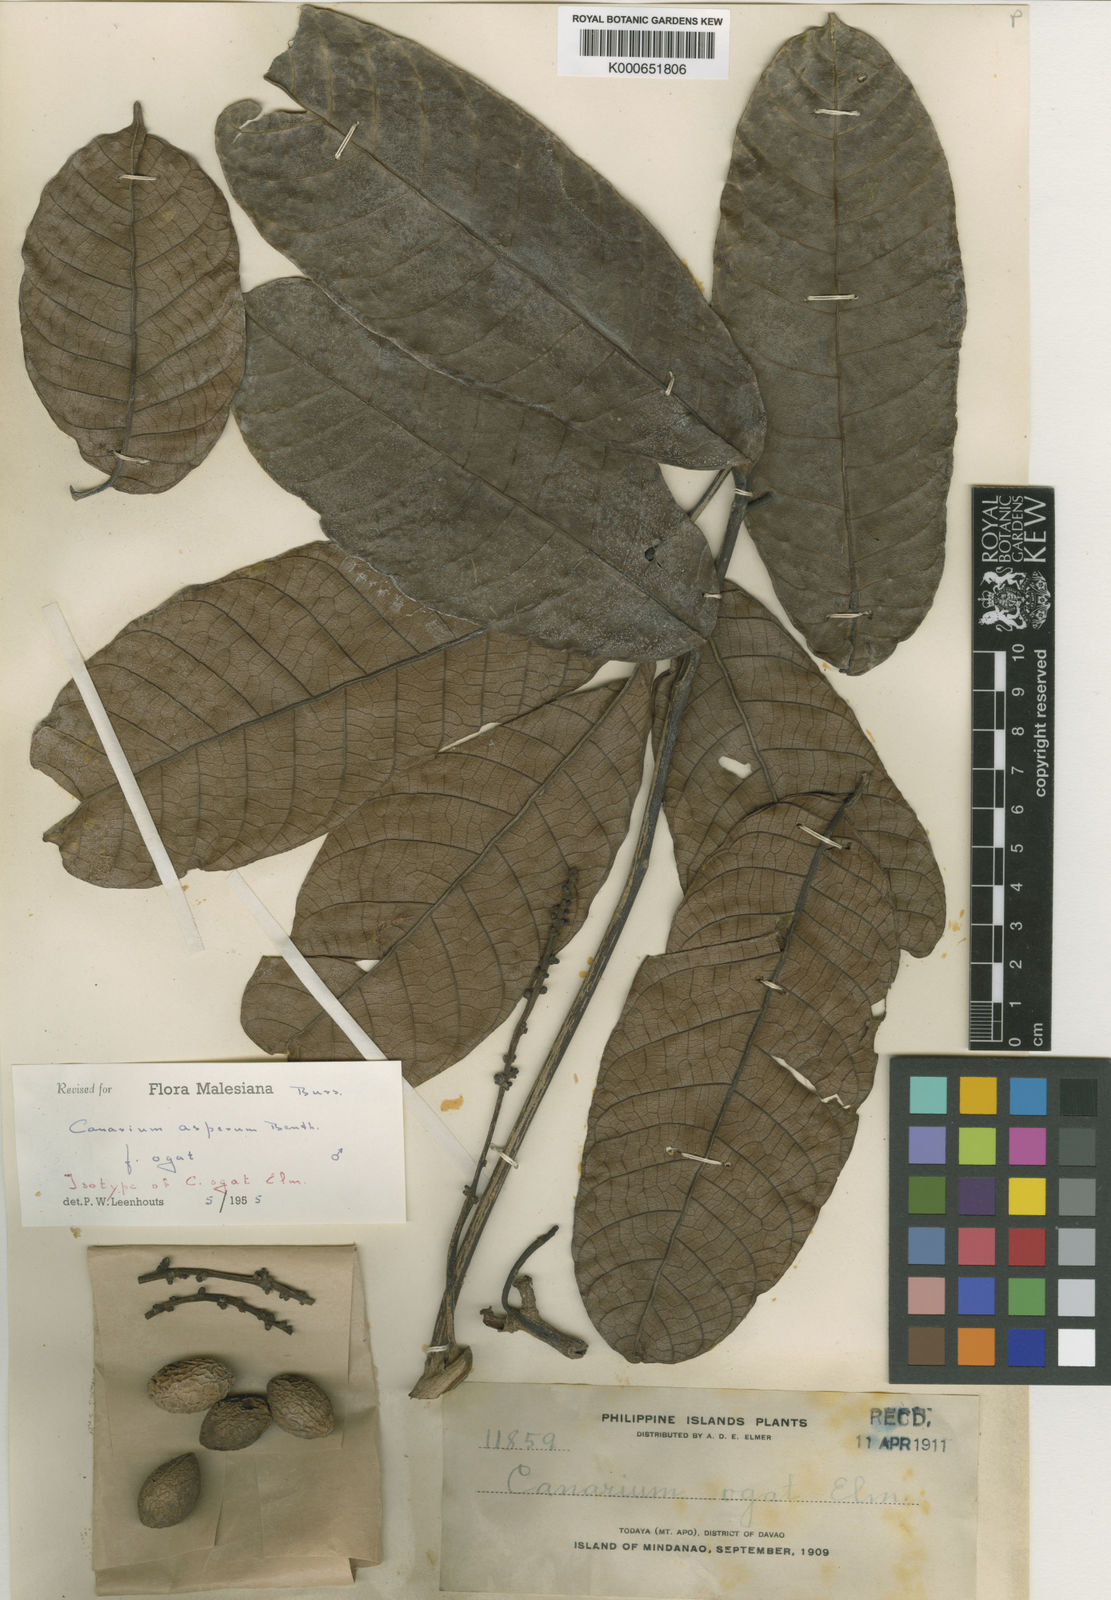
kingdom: Plantae
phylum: Tracheophyta
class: Magnoliopsida
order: Sapindales
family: Burseraceae
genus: Canarium
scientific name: Canarium asperum
